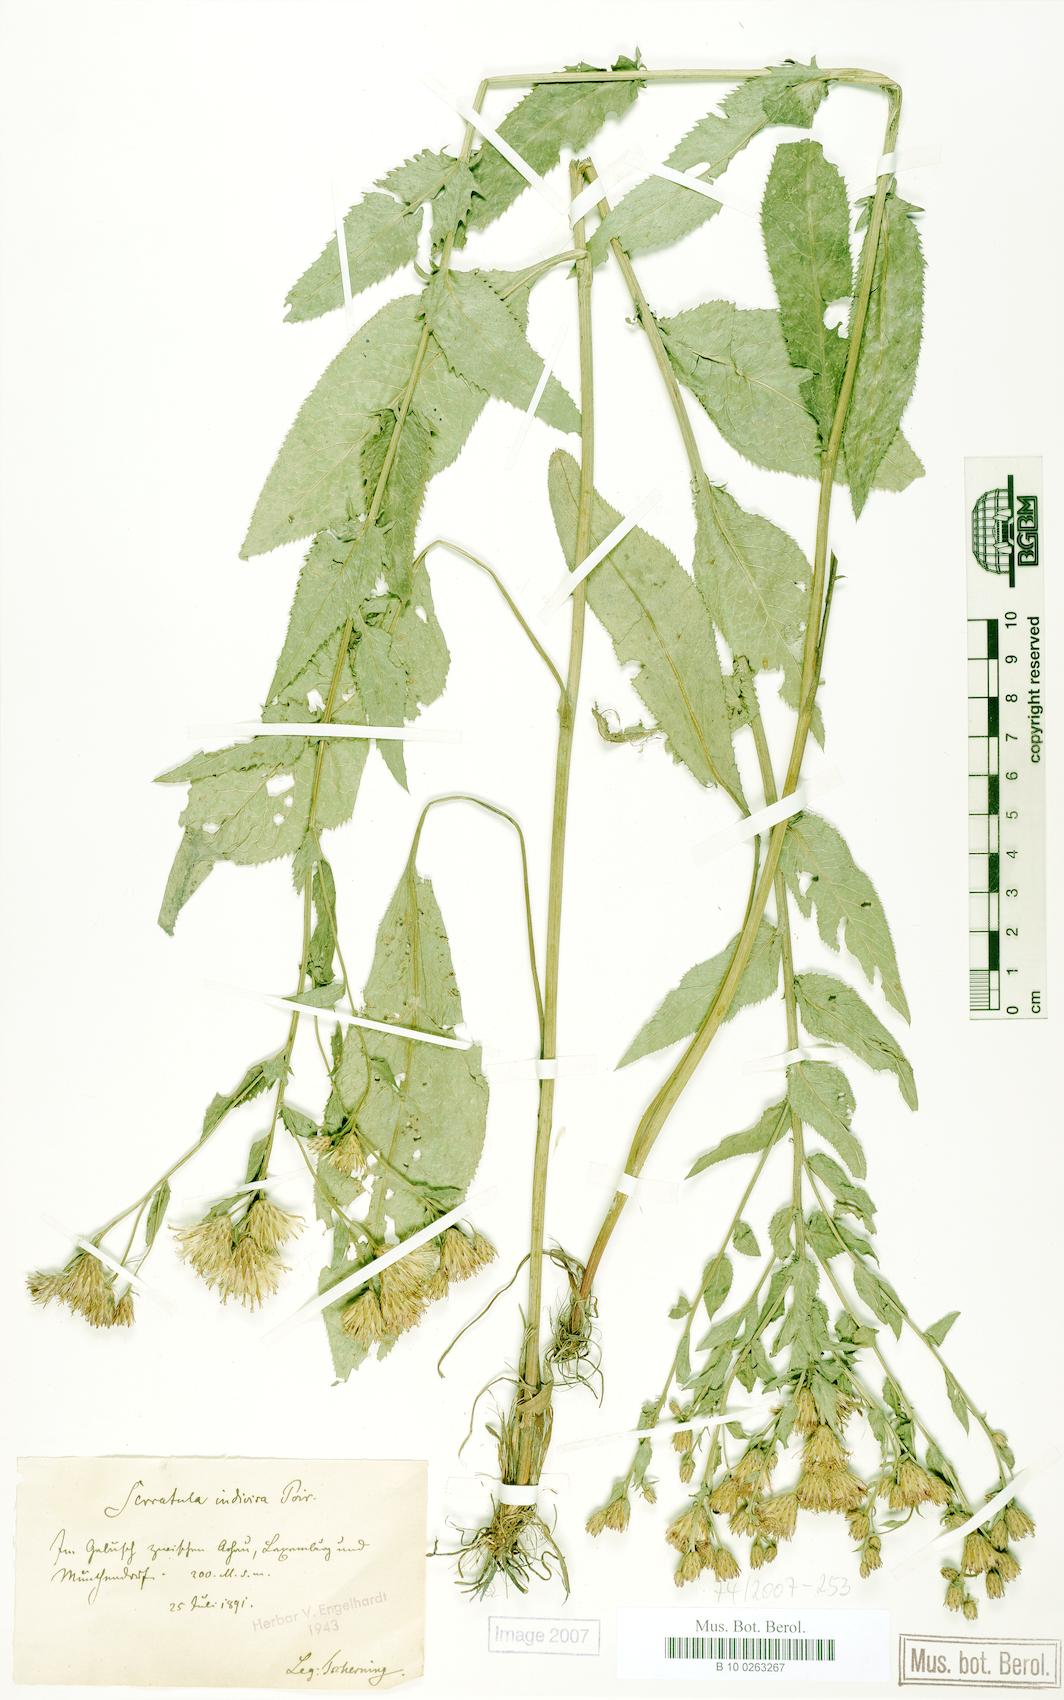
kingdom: Plantae
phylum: Tracheophyta
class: Magnoliopsida
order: Asterales
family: Asteraceae
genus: Serratula
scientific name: Serratula tinctoria
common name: Saw-wort
